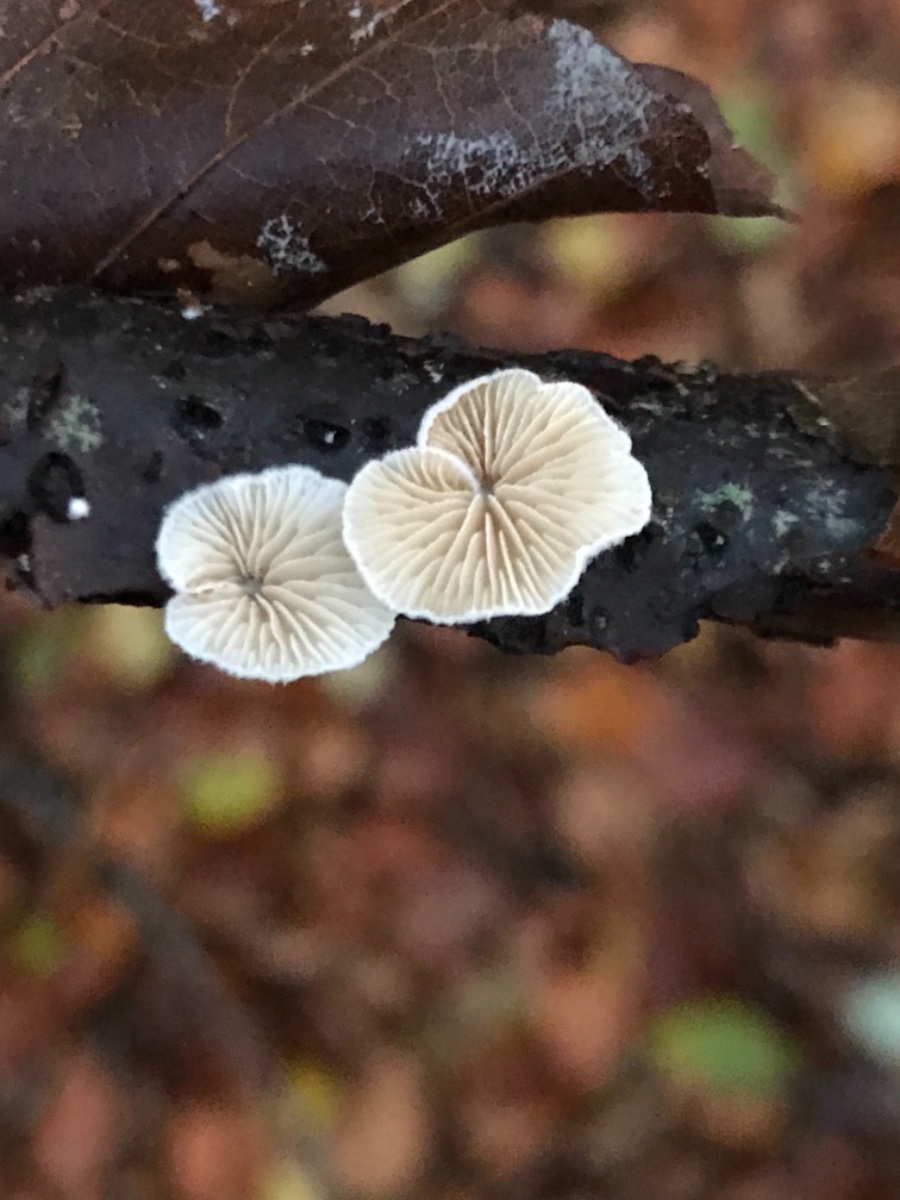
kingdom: Fungi
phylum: Basidiomycota
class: Agaricomycetes
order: Agaricales
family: Crepidotaceae
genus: Crepidotus
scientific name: Crepidotus cesatii
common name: almindelig muslingesvamp
